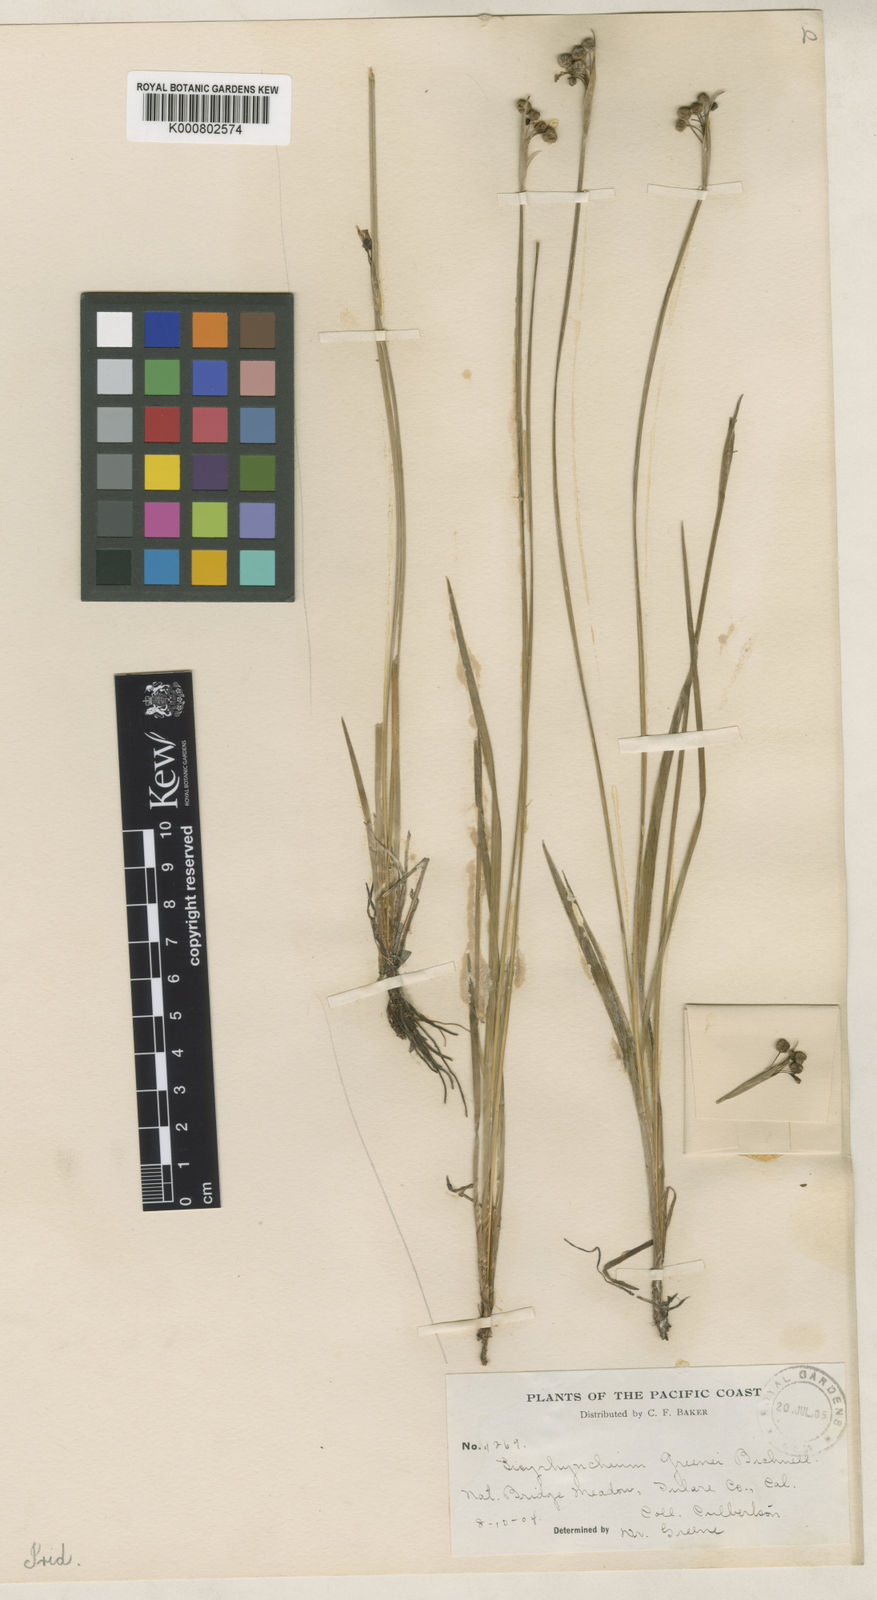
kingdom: Plantae
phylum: Tracheophyta
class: Liliopsida
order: Asparagales
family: Iridaceae
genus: Sisyrinchium
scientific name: Sisyrinchium bellum
